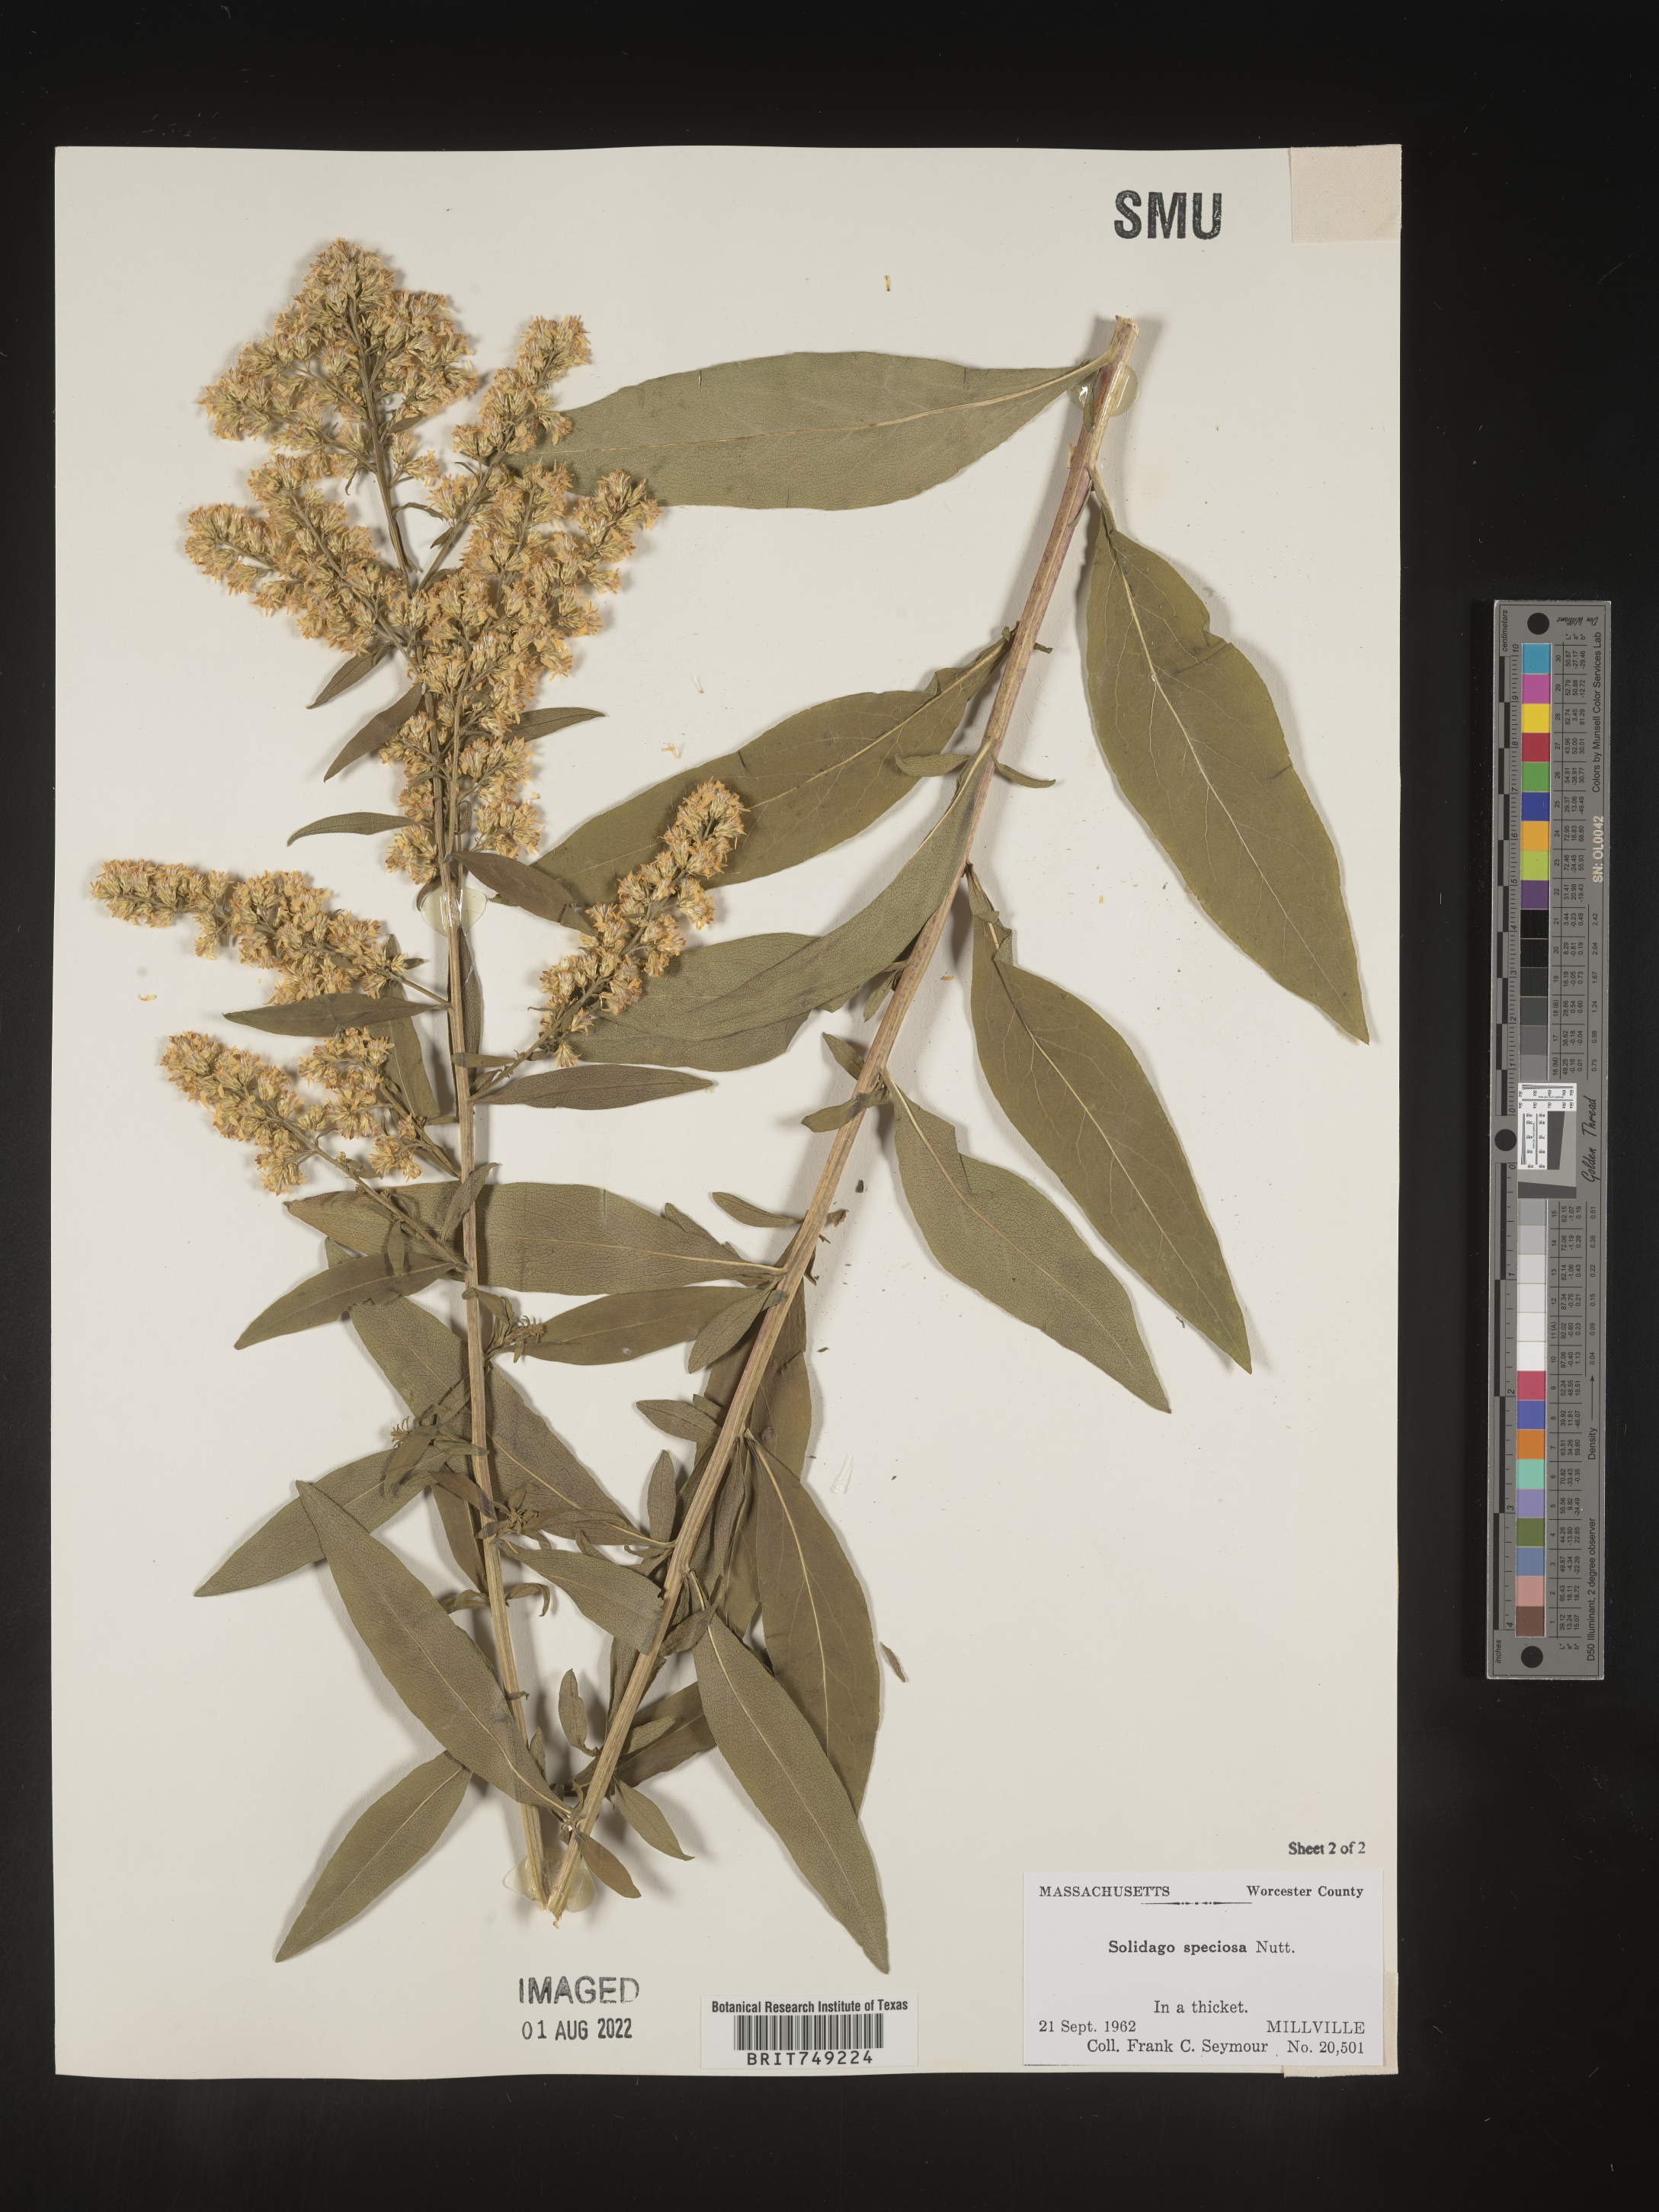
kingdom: Plantae
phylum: Tracheophyta
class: Magnoliopsida
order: Asterales
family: Asteraceae
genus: Solidago
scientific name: Solidago speciosa
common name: Showy goldenrod
